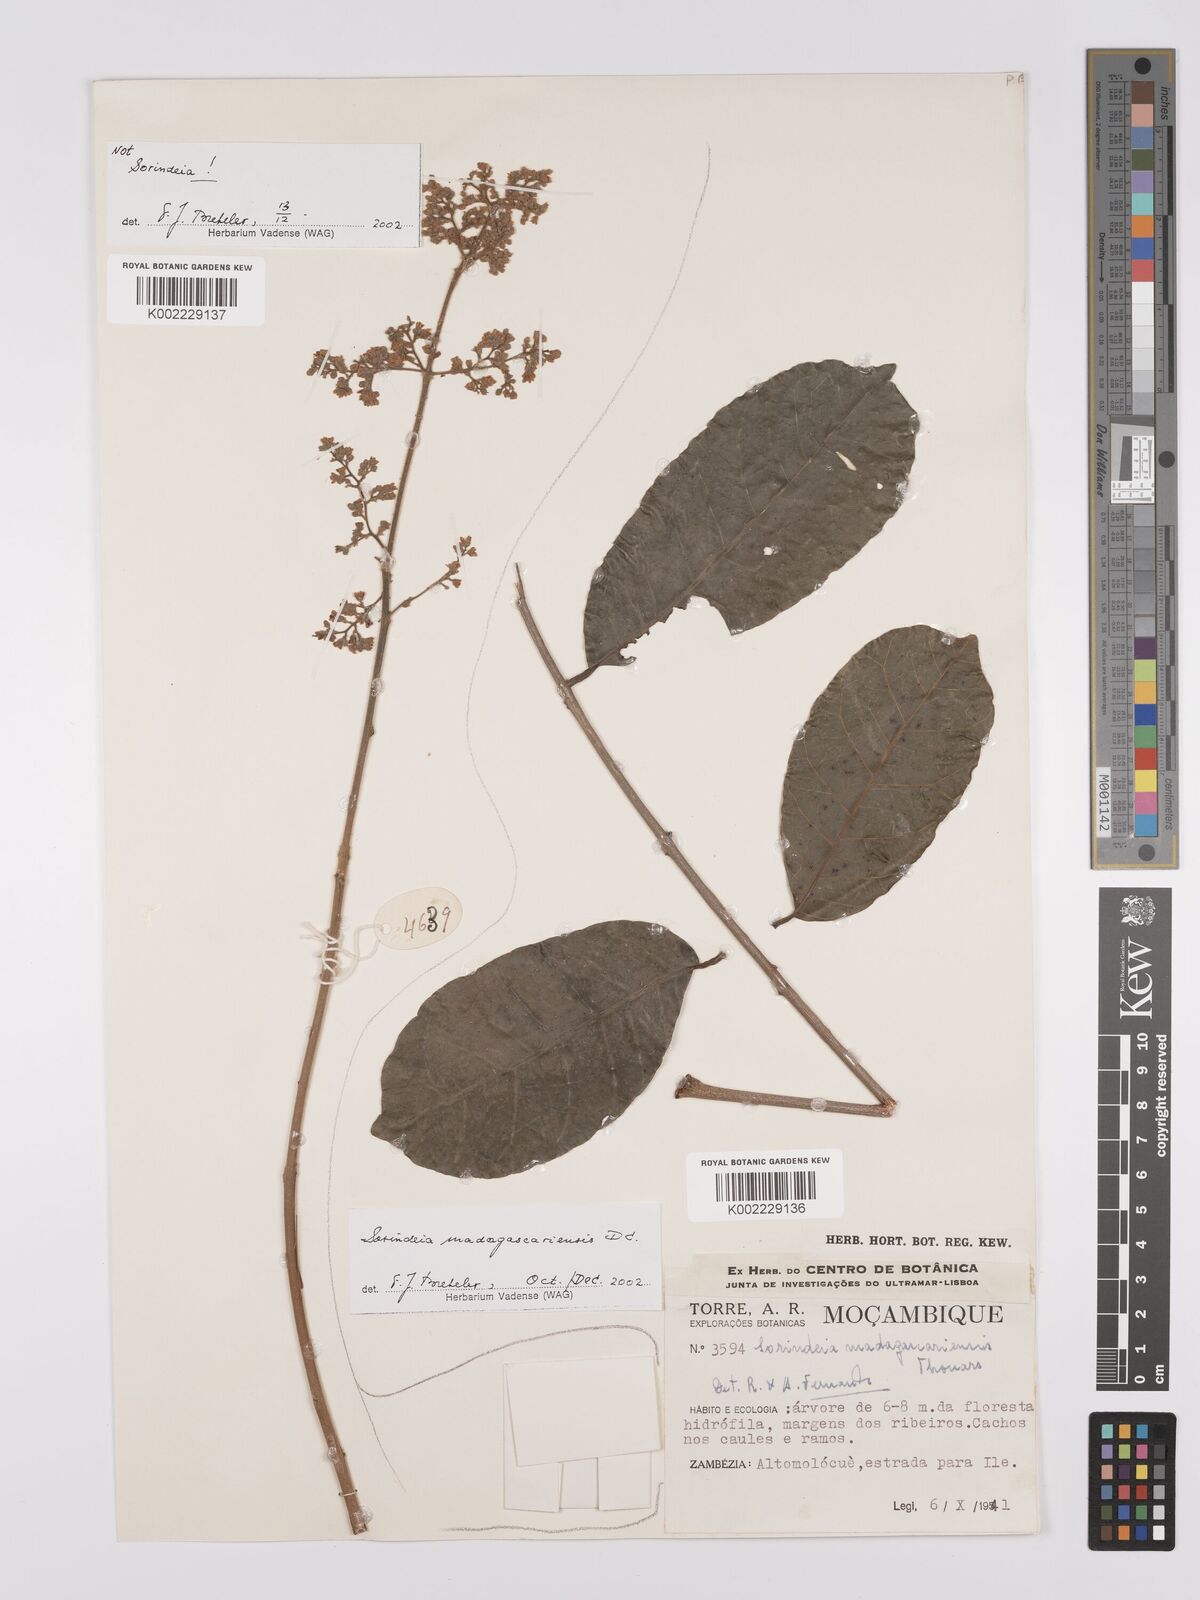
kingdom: Plantae
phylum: Tracheophyta
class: Magnoliopsida
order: Sapindales
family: Anacardiaceae
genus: Sorindeia
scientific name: Sorindeia madagascariensis
